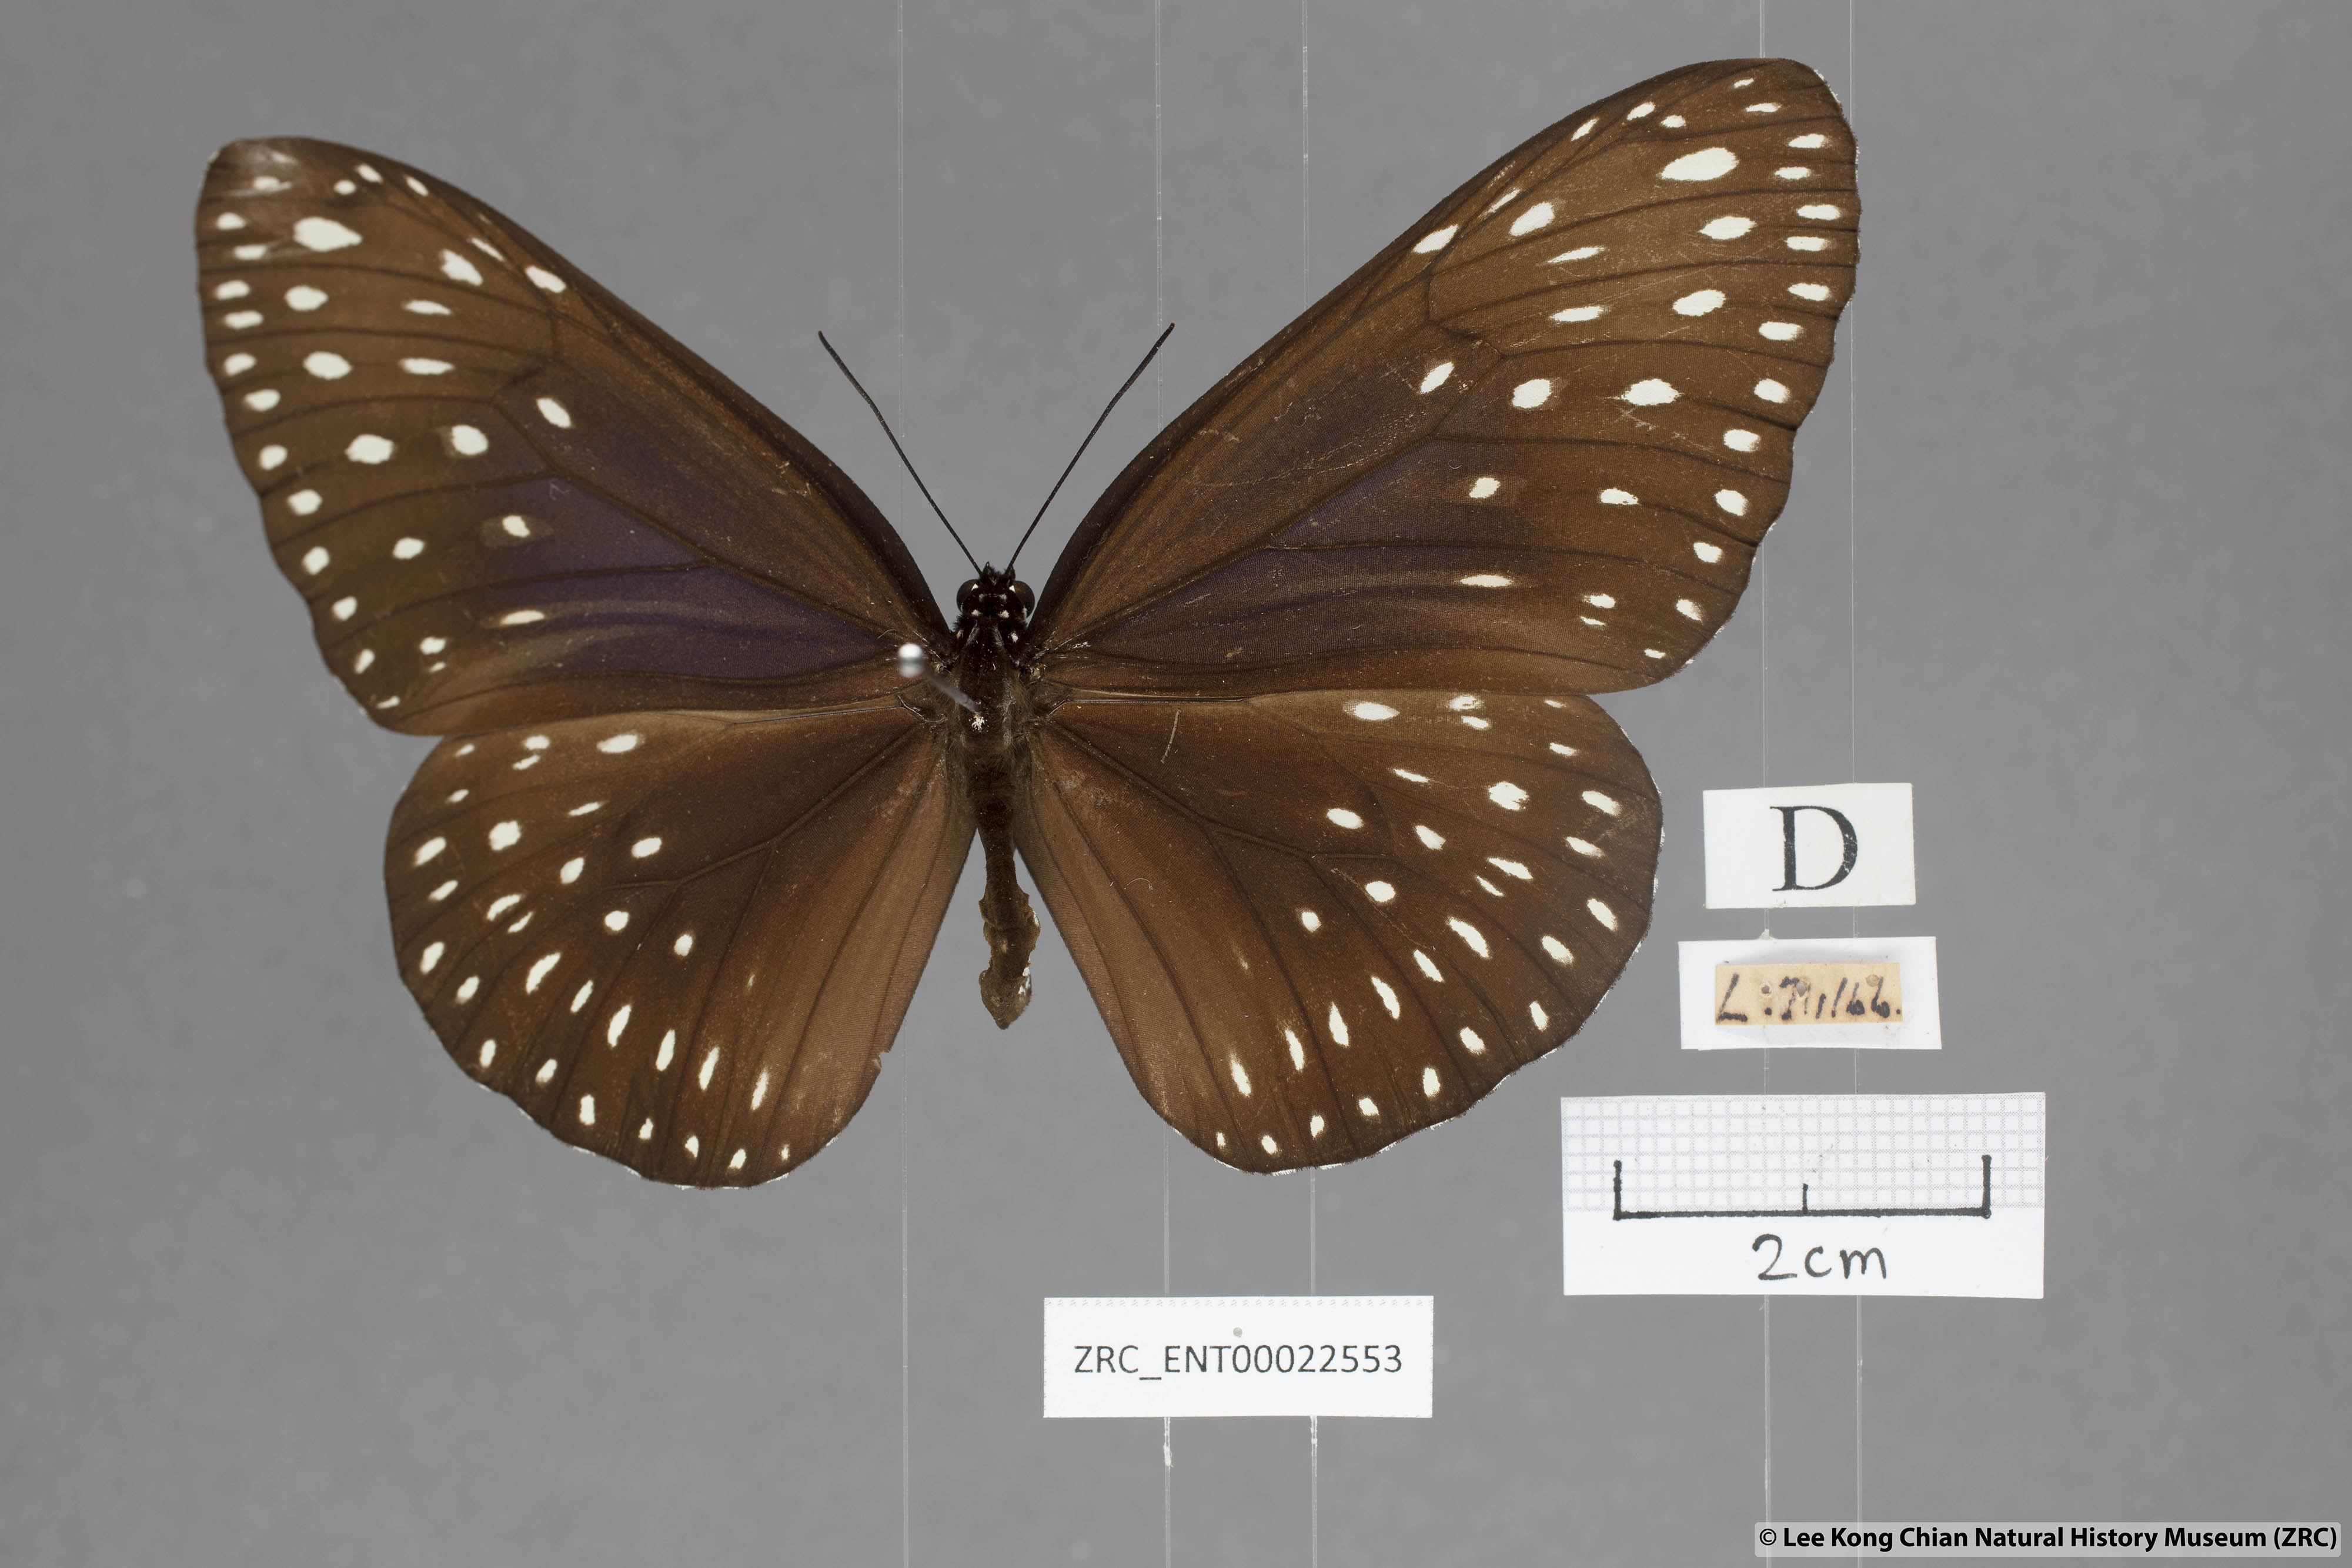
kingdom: Animalia
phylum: Arthropoda
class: Insecta
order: Lepidoptera
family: Nymphalidae
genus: Euploea
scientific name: Euploea camaralzeman
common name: Malayan crow butterfly
